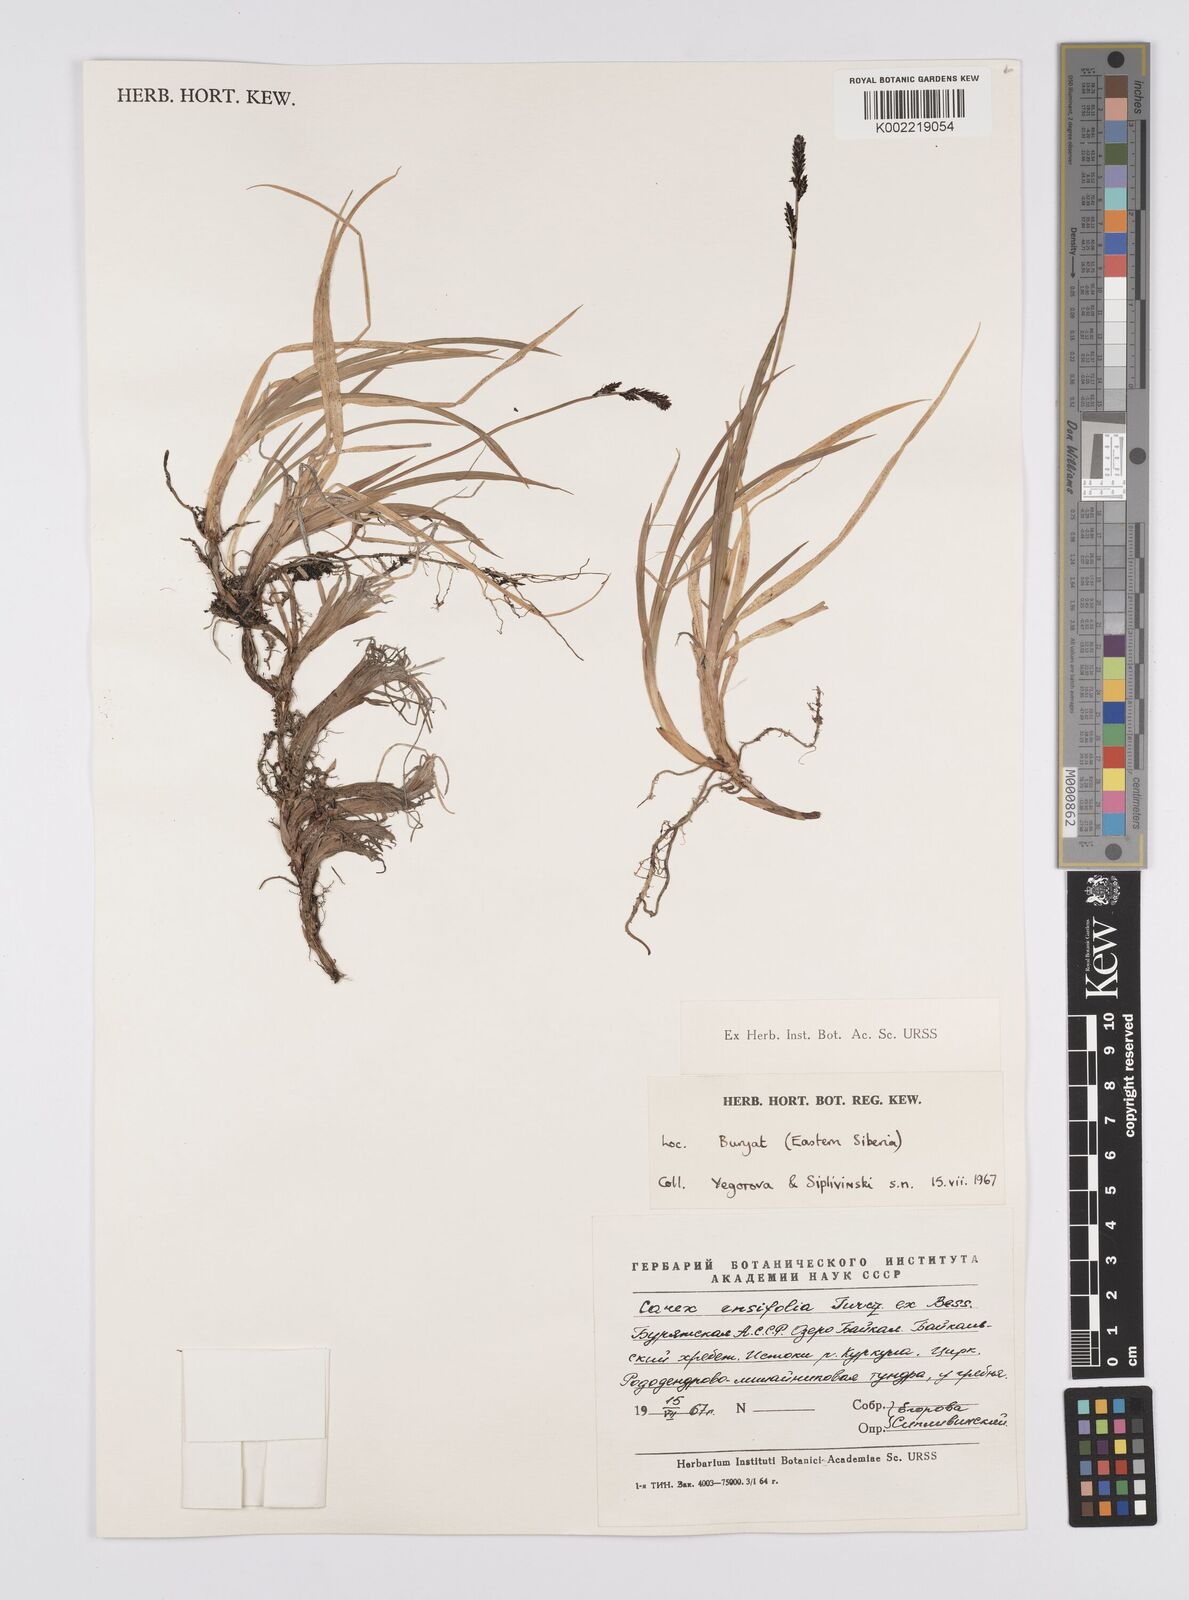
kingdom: Plantae
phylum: Tracheophyta
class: Liliopsida
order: Poales
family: Cyperaceae
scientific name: Cyperaceae
